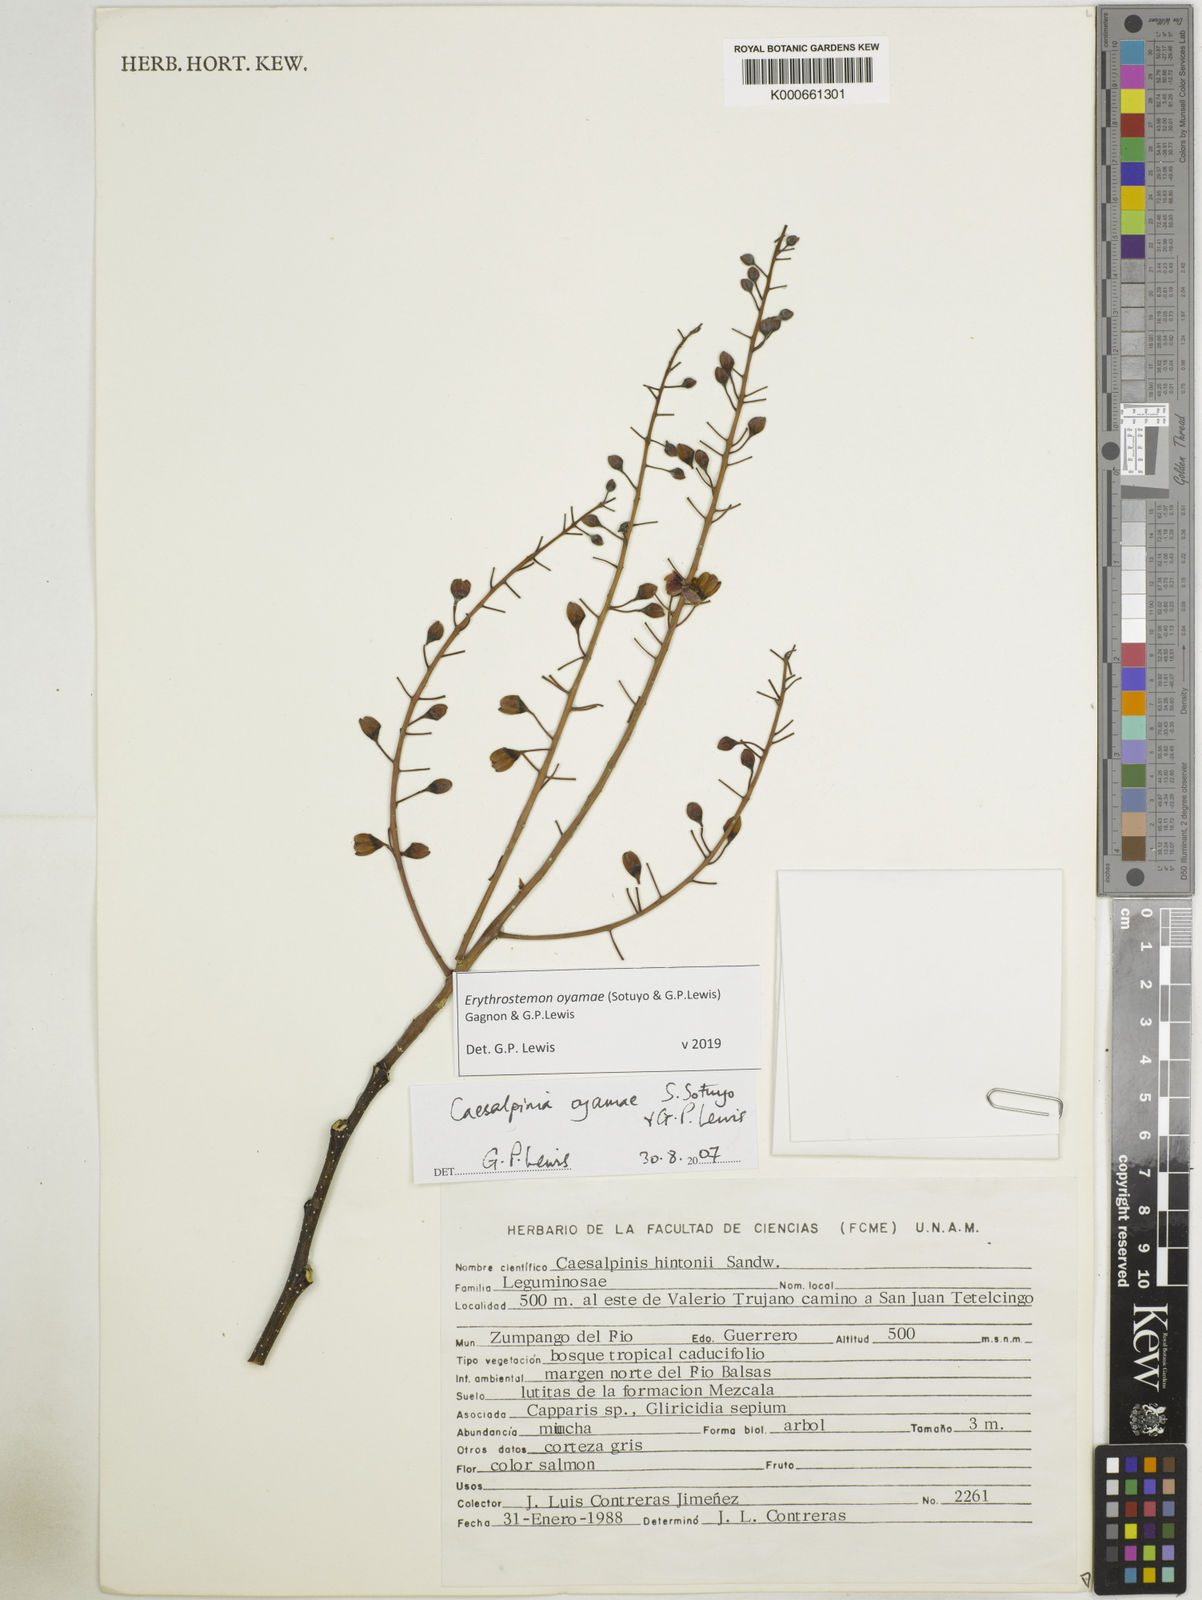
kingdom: Plantae
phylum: Tracheophyta
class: Magnoliopsida
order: Fabales
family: Fabaceae
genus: Erythrostemon
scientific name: Erythrostemon oyamae
